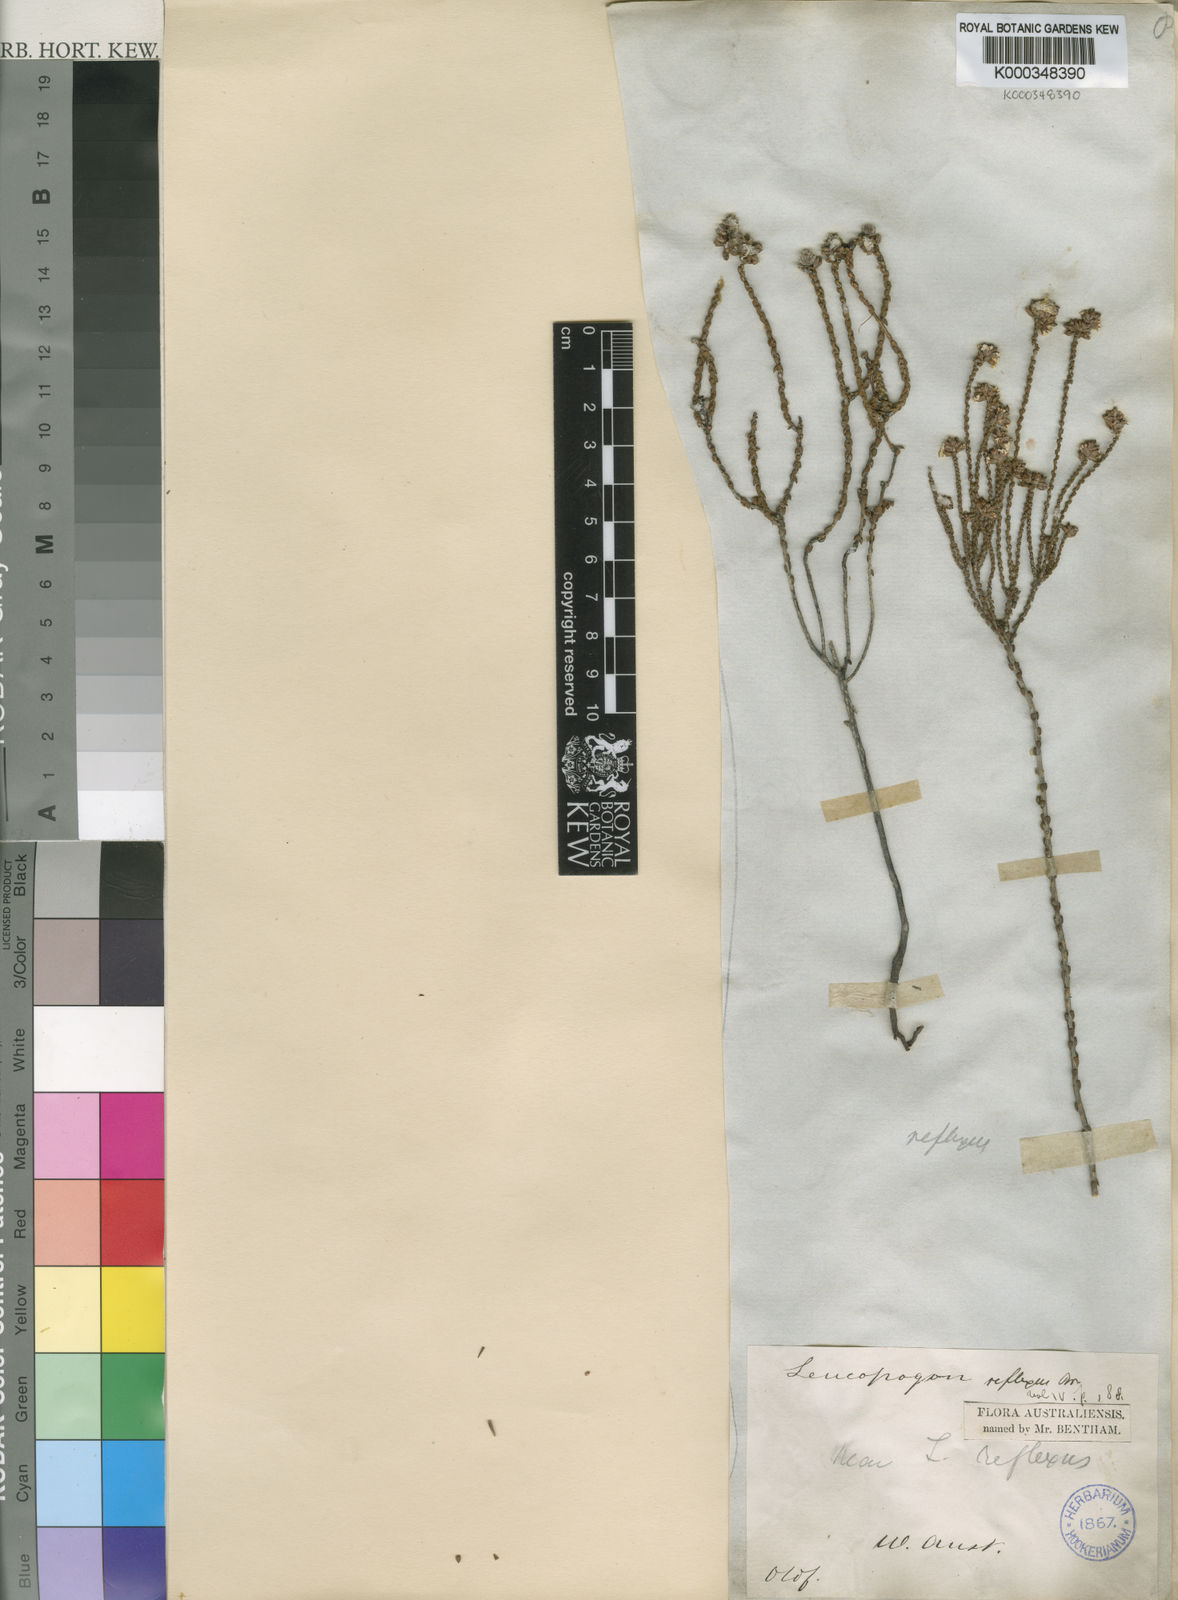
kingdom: Plantae
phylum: Tracheophyta
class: Magnoliopsida
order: Ericales
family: Ericaceae
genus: Leucopogon
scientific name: Leucopogon reflexus
